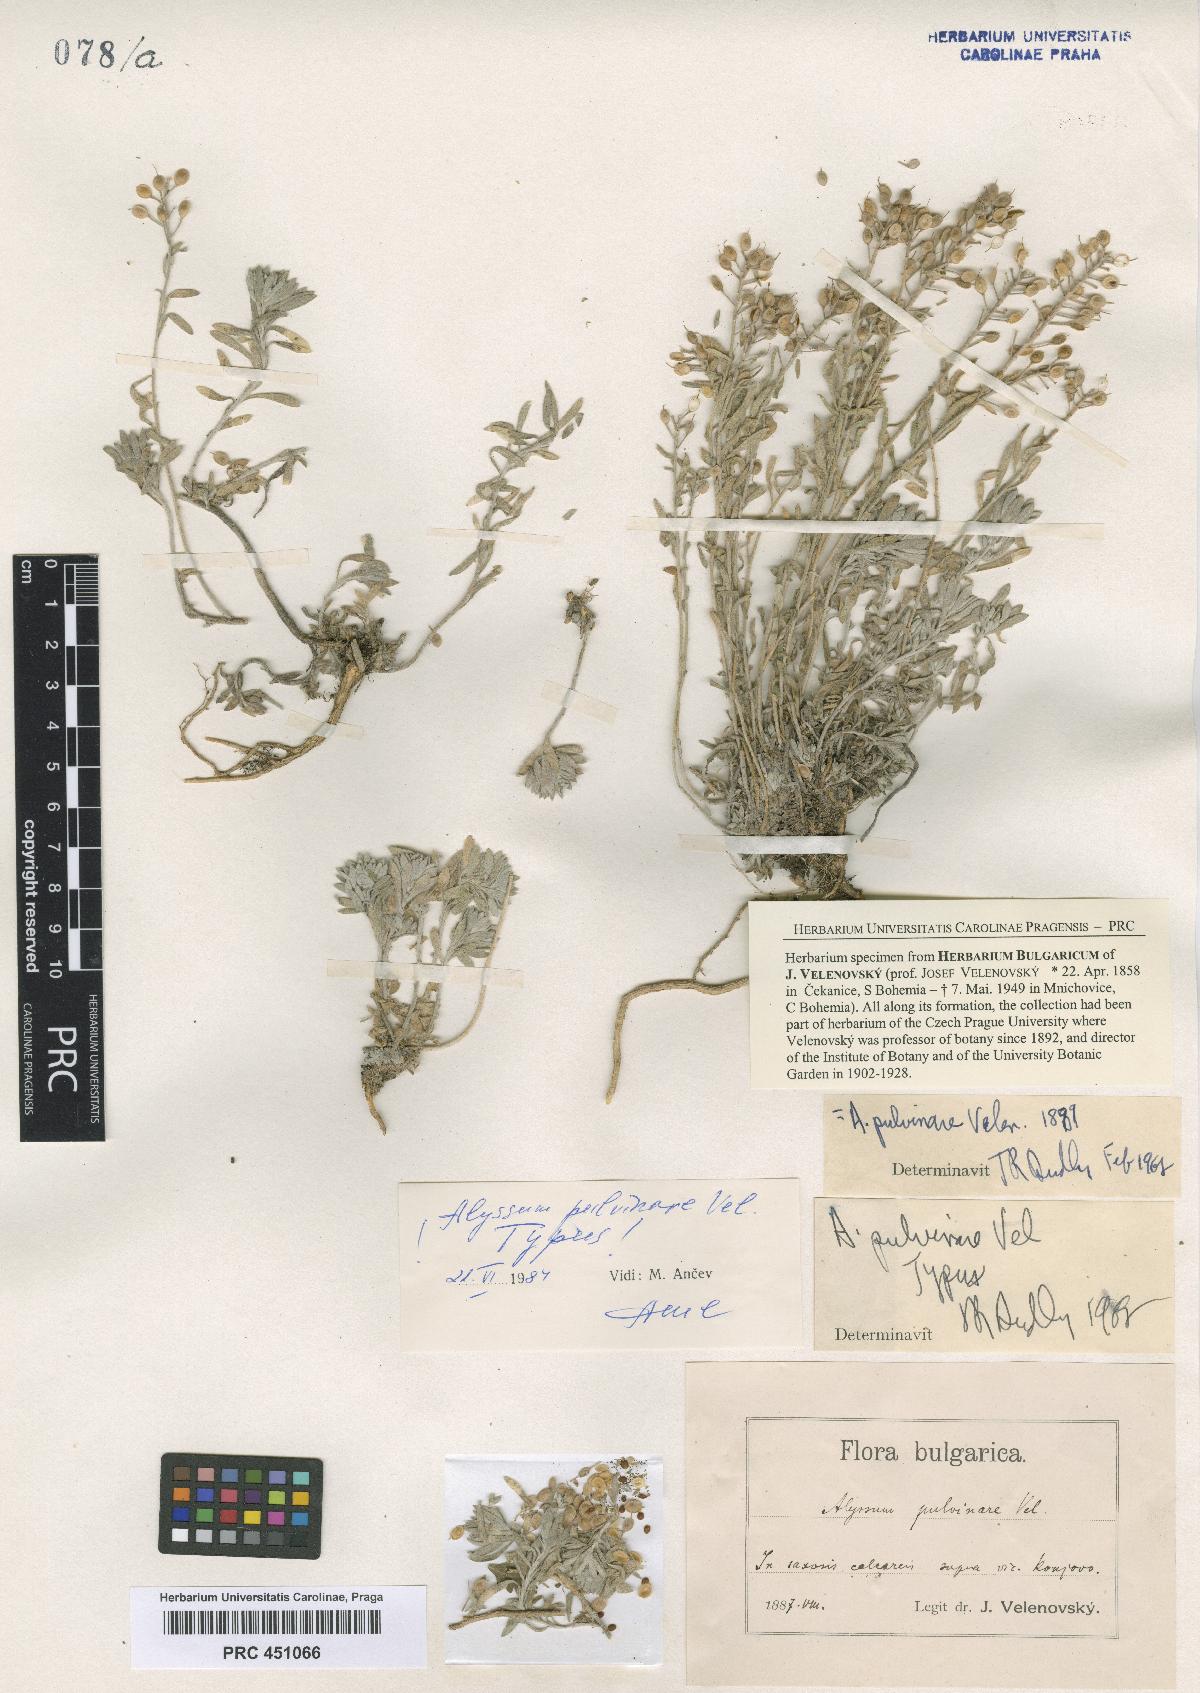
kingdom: Plantae
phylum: Tracheophyta
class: Magnoliopsida
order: Brassicales
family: Brassicaceae
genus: Alyssum
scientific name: Alyssum pulvinare
